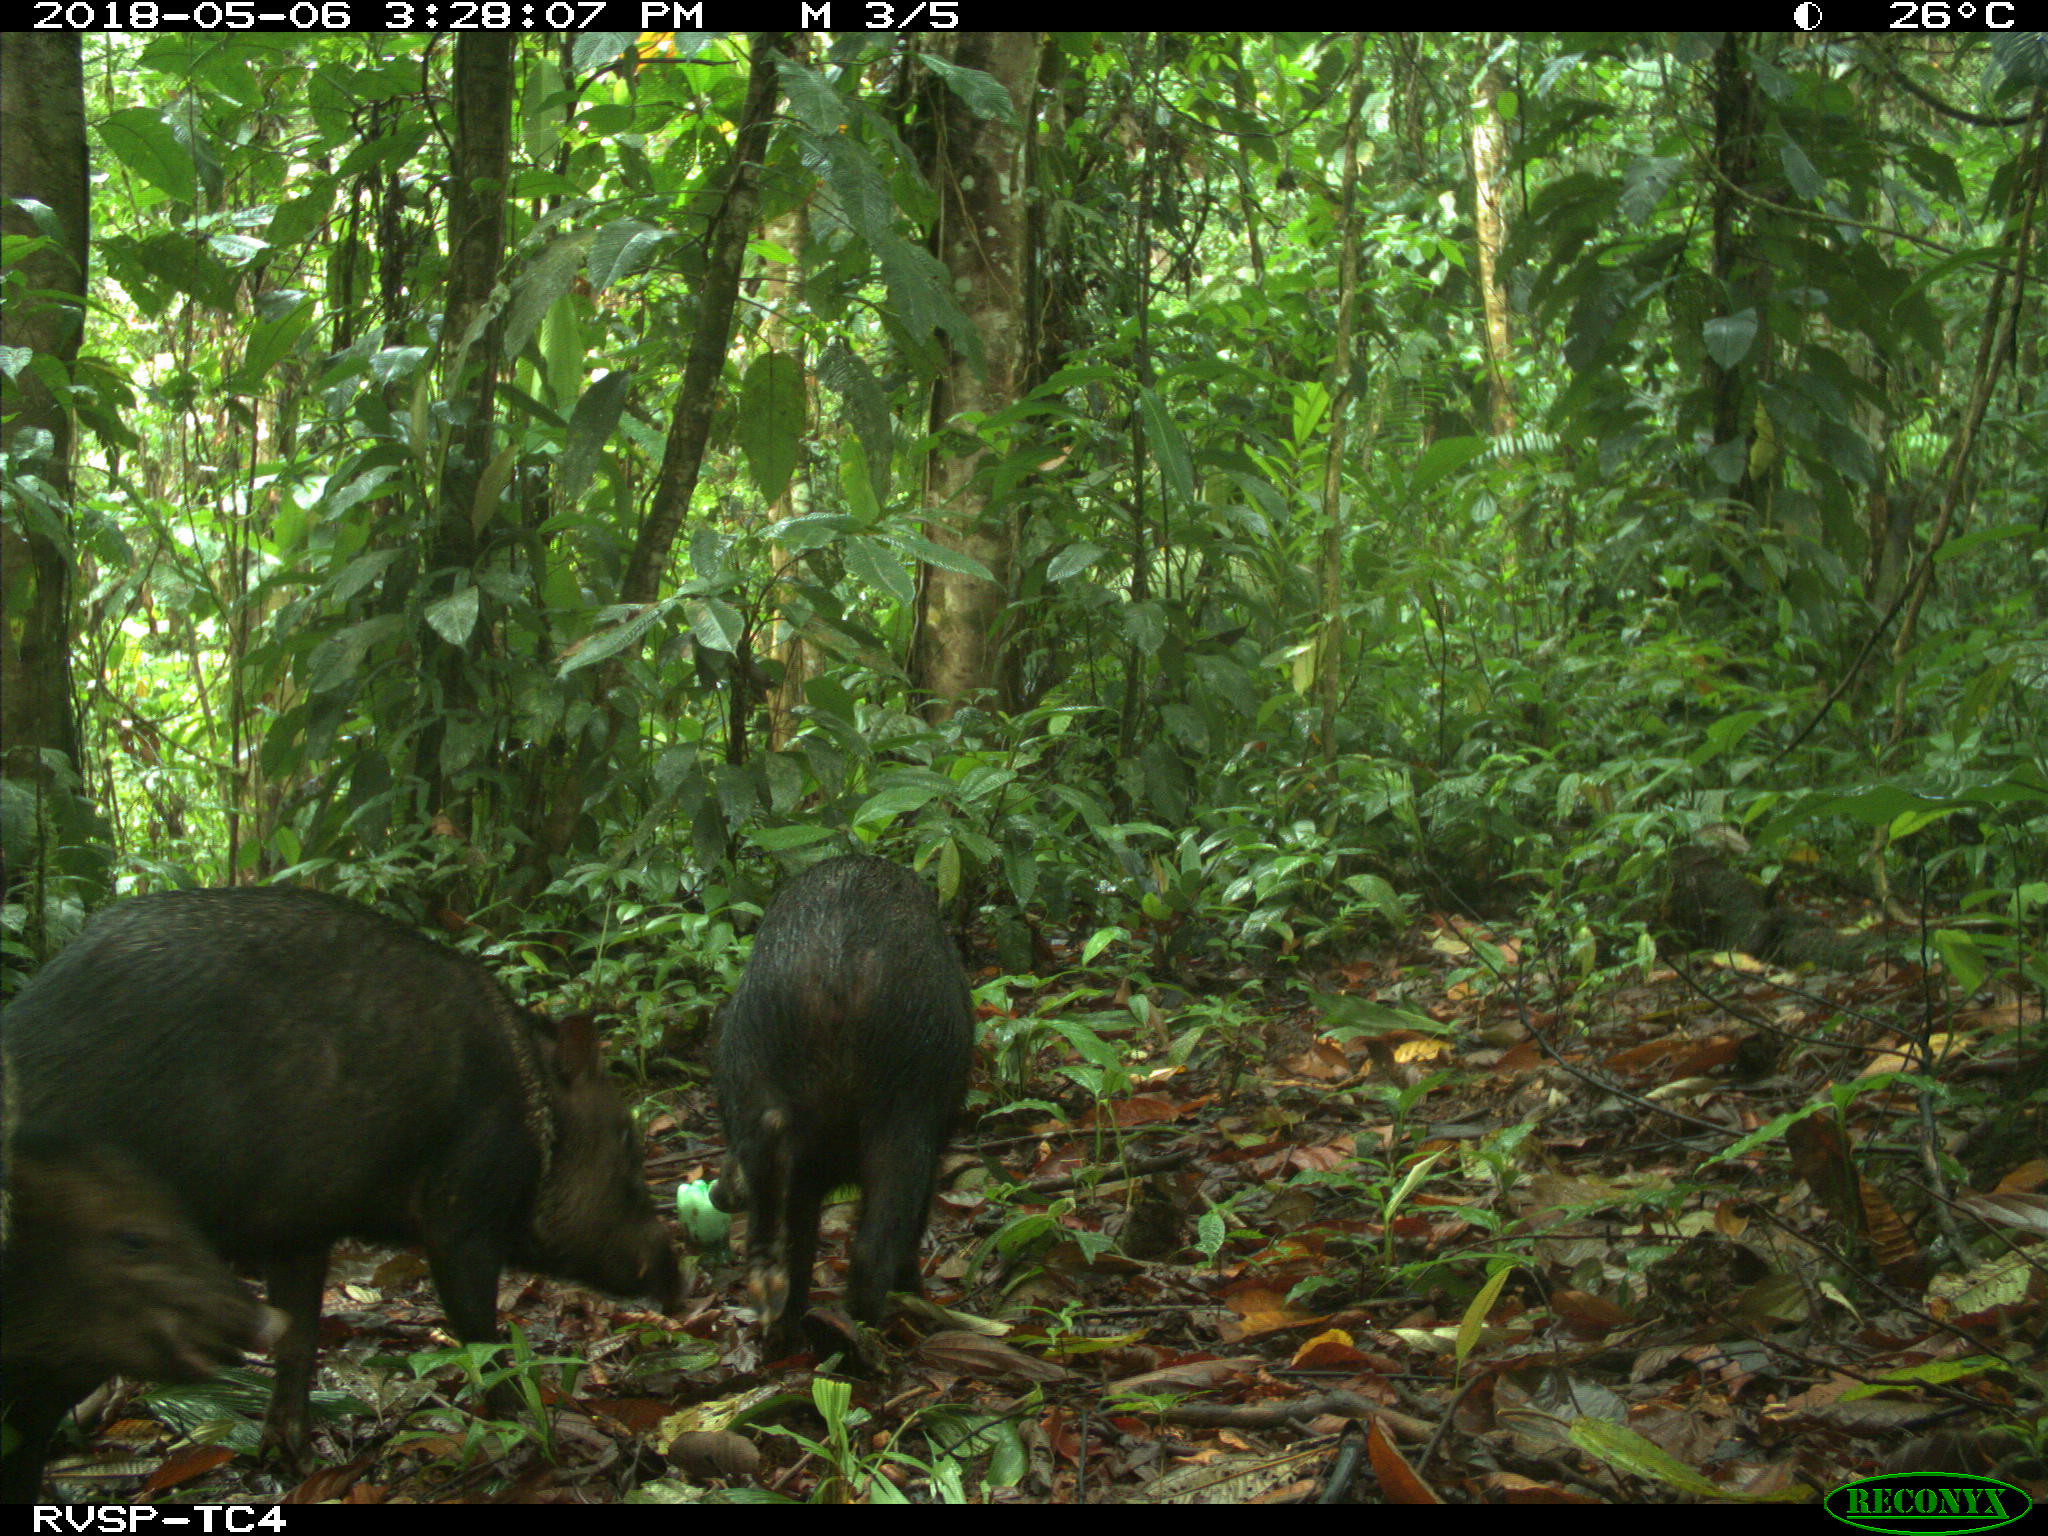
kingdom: Animalia
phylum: Chordata
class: Mammalia
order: Rodentia
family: Dasyproctidae
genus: Dasyprocta
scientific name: Dasyprocta punctata
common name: Central american agouti
